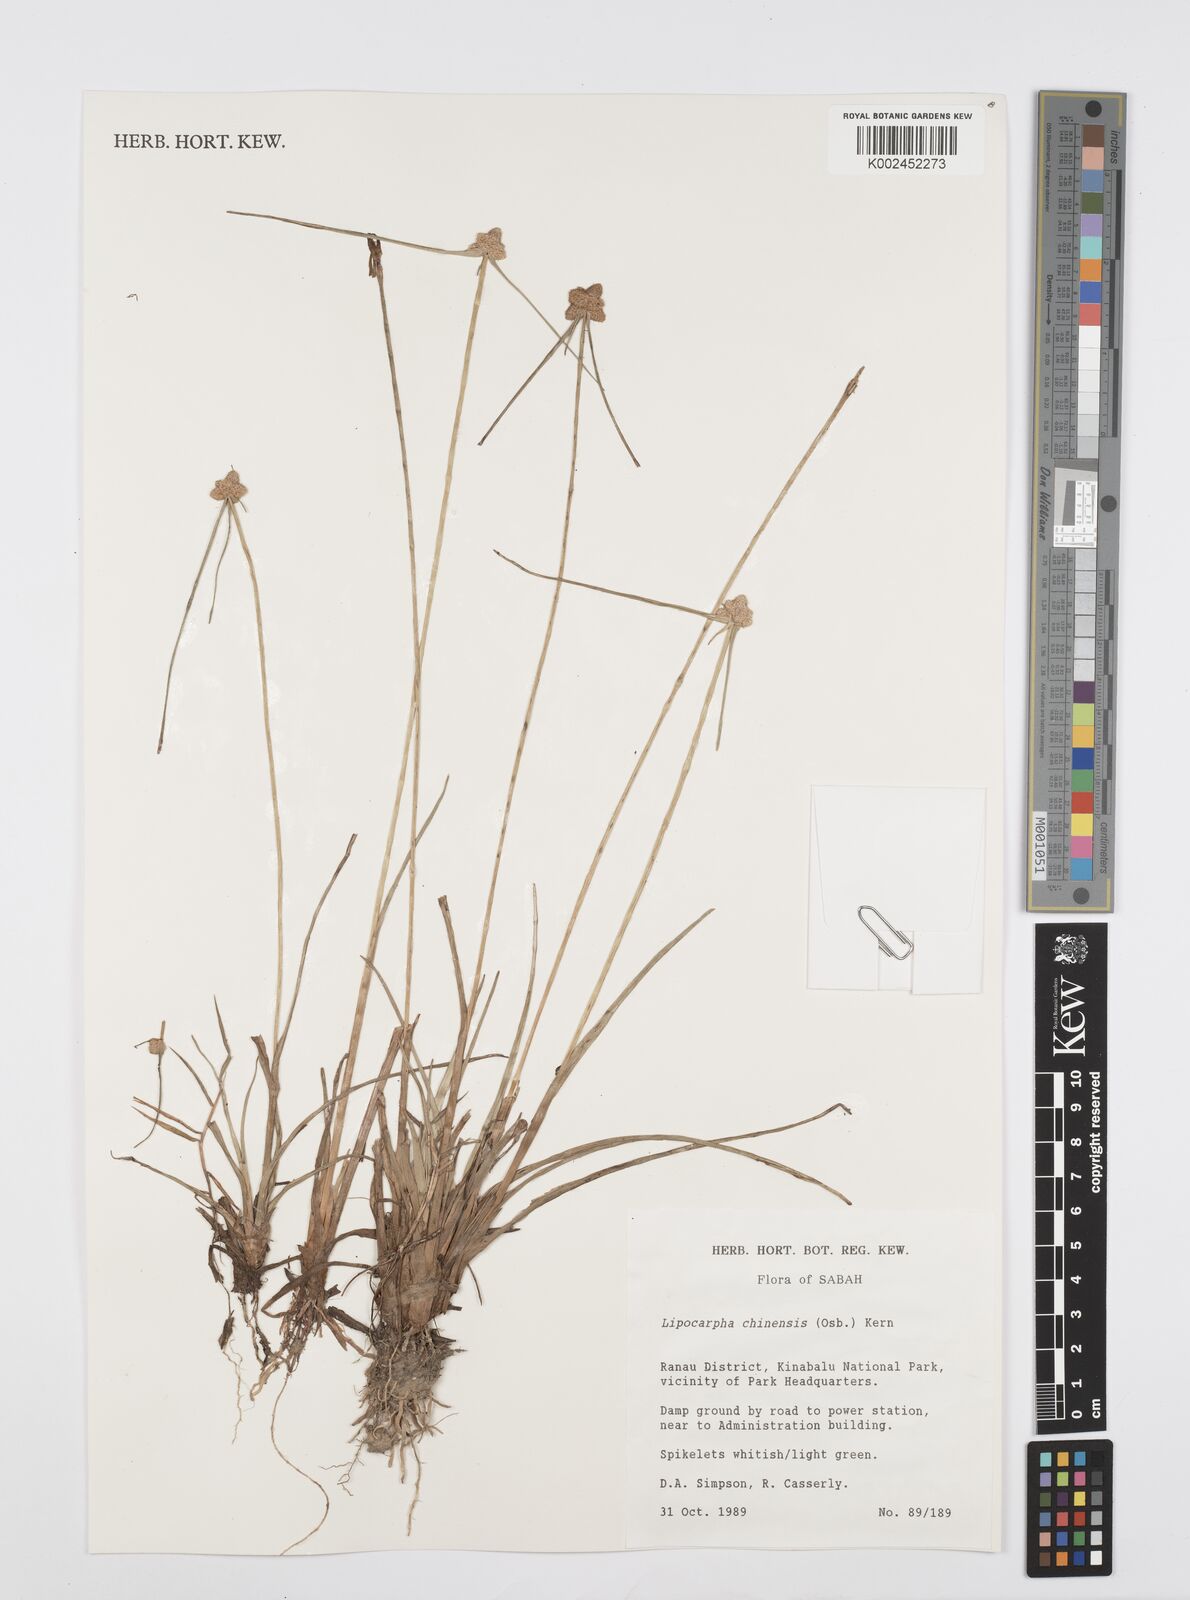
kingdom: Plantae
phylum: Tracheophyta
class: Liliopsida
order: Poales
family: Cyperaceae
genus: Cyperus
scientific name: Cyperus
